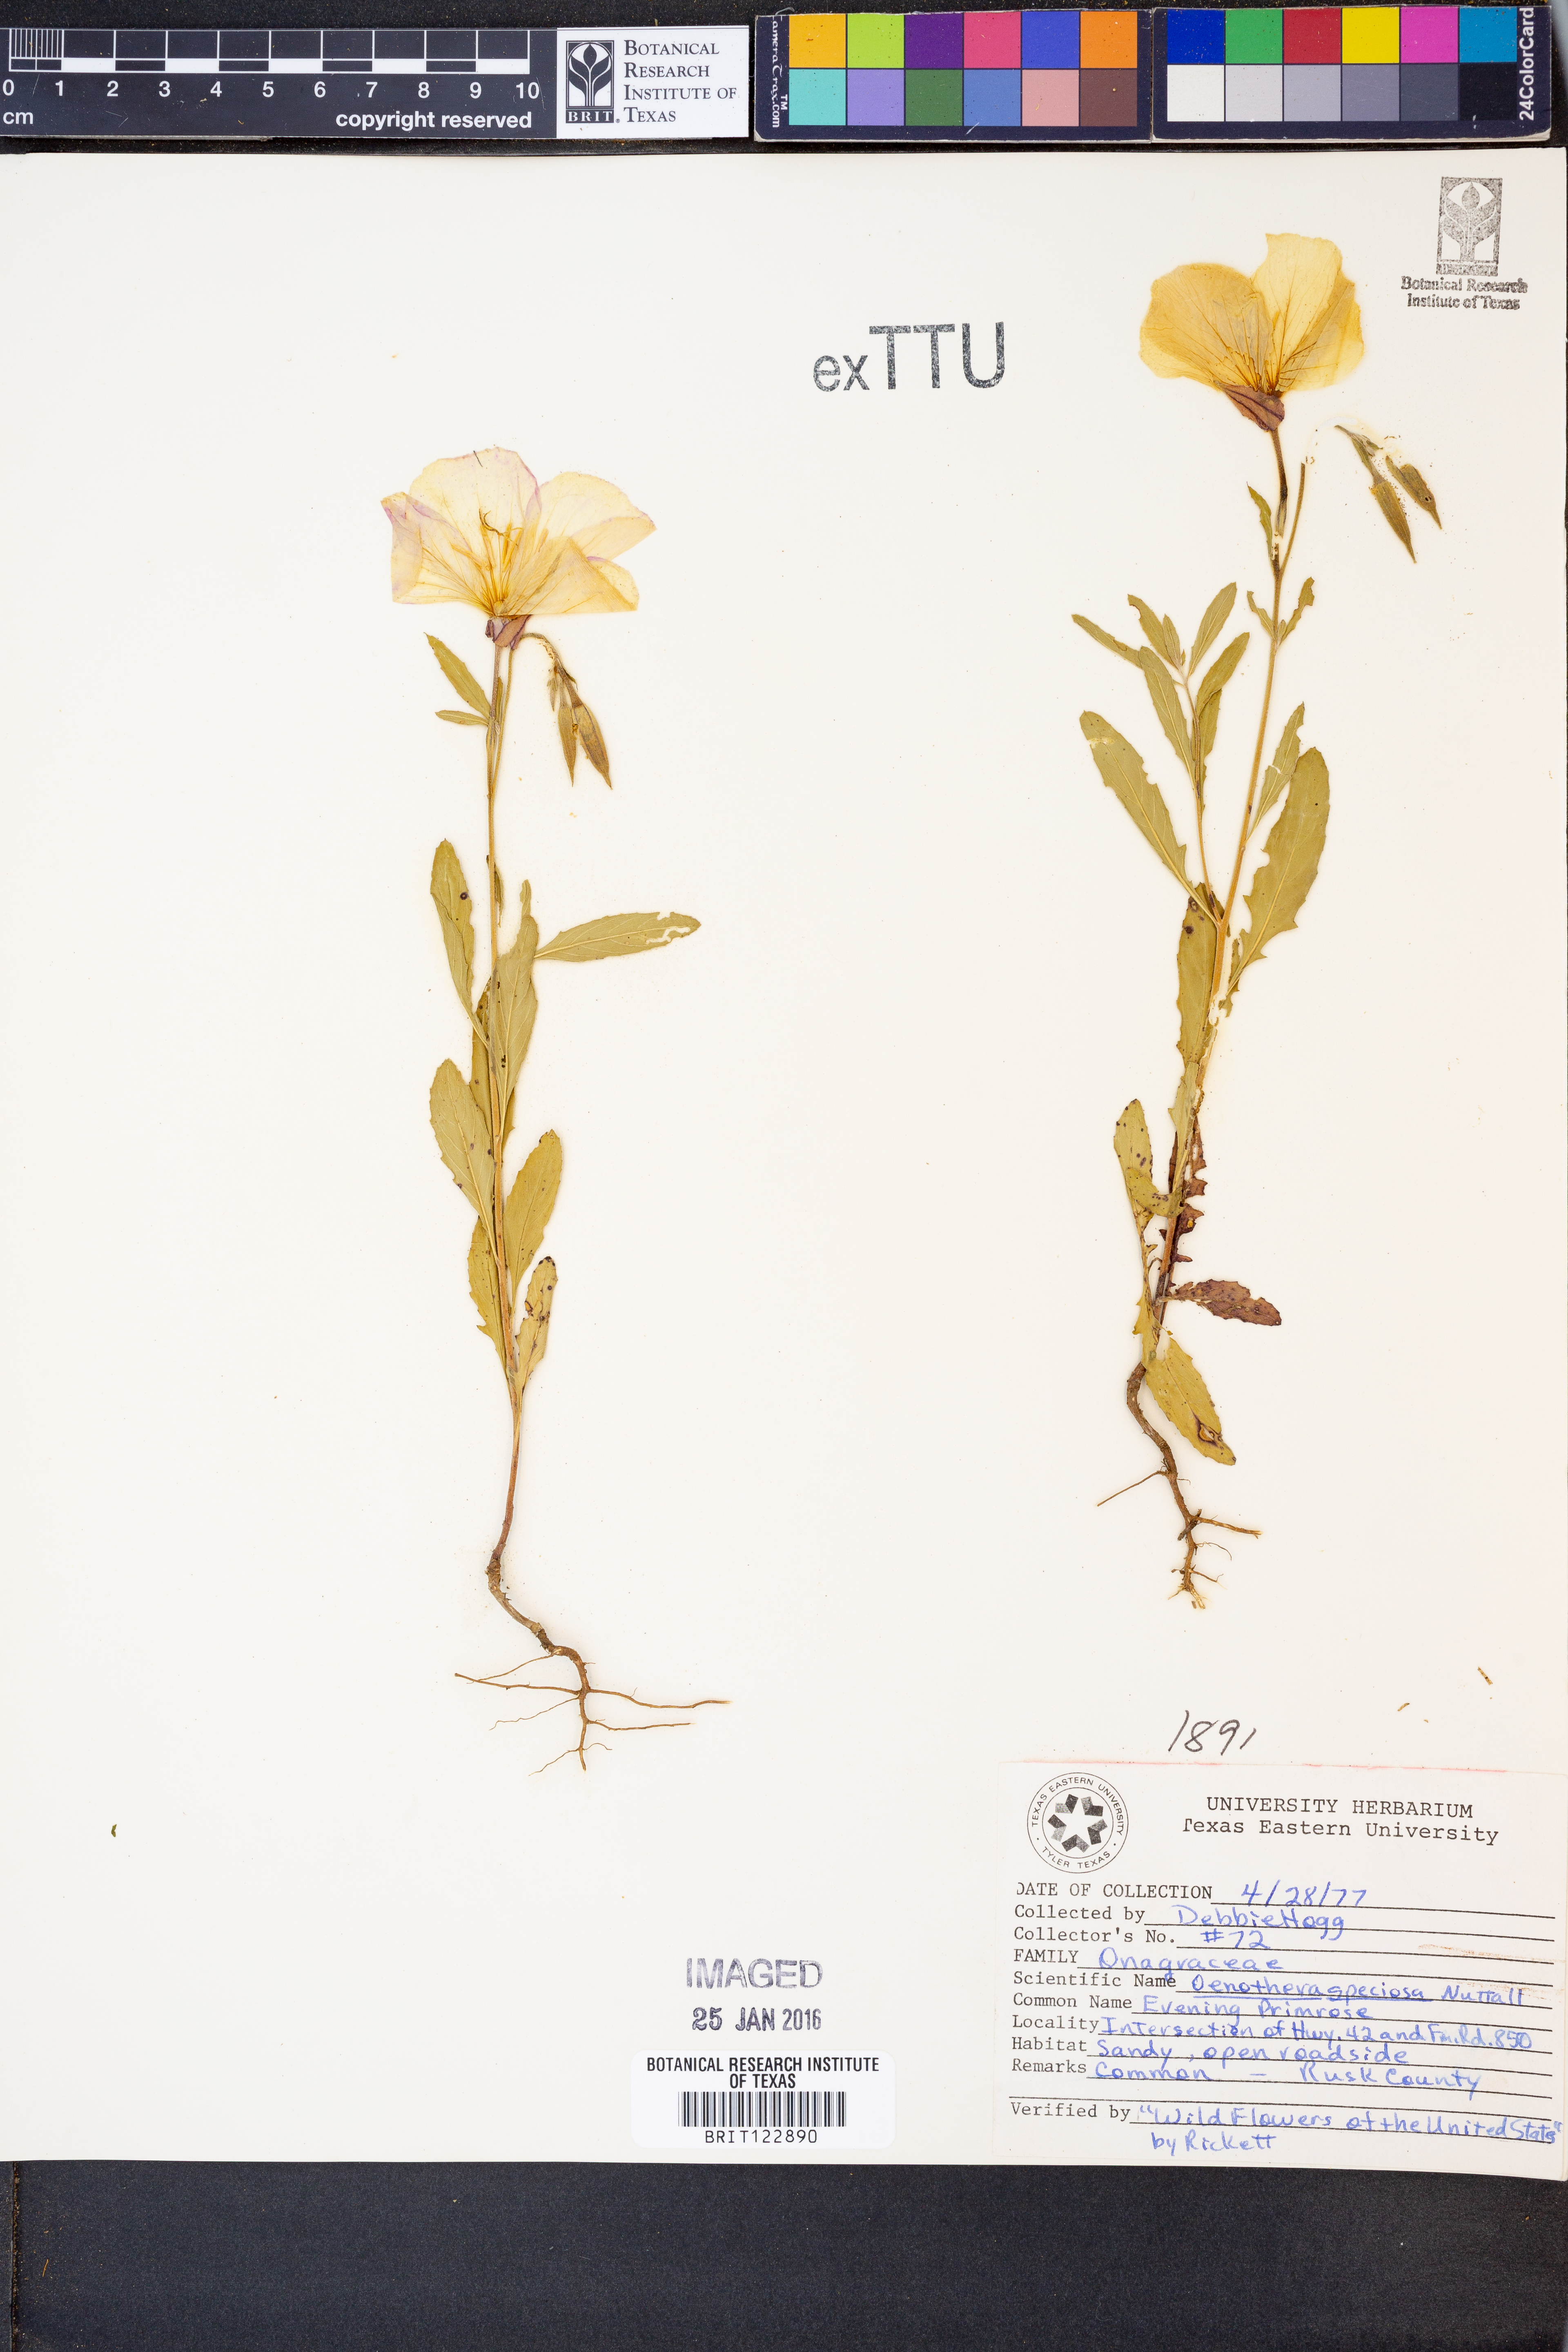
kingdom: Plantae
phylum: Tracheophyta
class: Magnoliopsida
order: Myrtales
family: Onagraceae
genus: Oenothera
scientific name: Oenothera speciosa
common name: White evening-primrose
